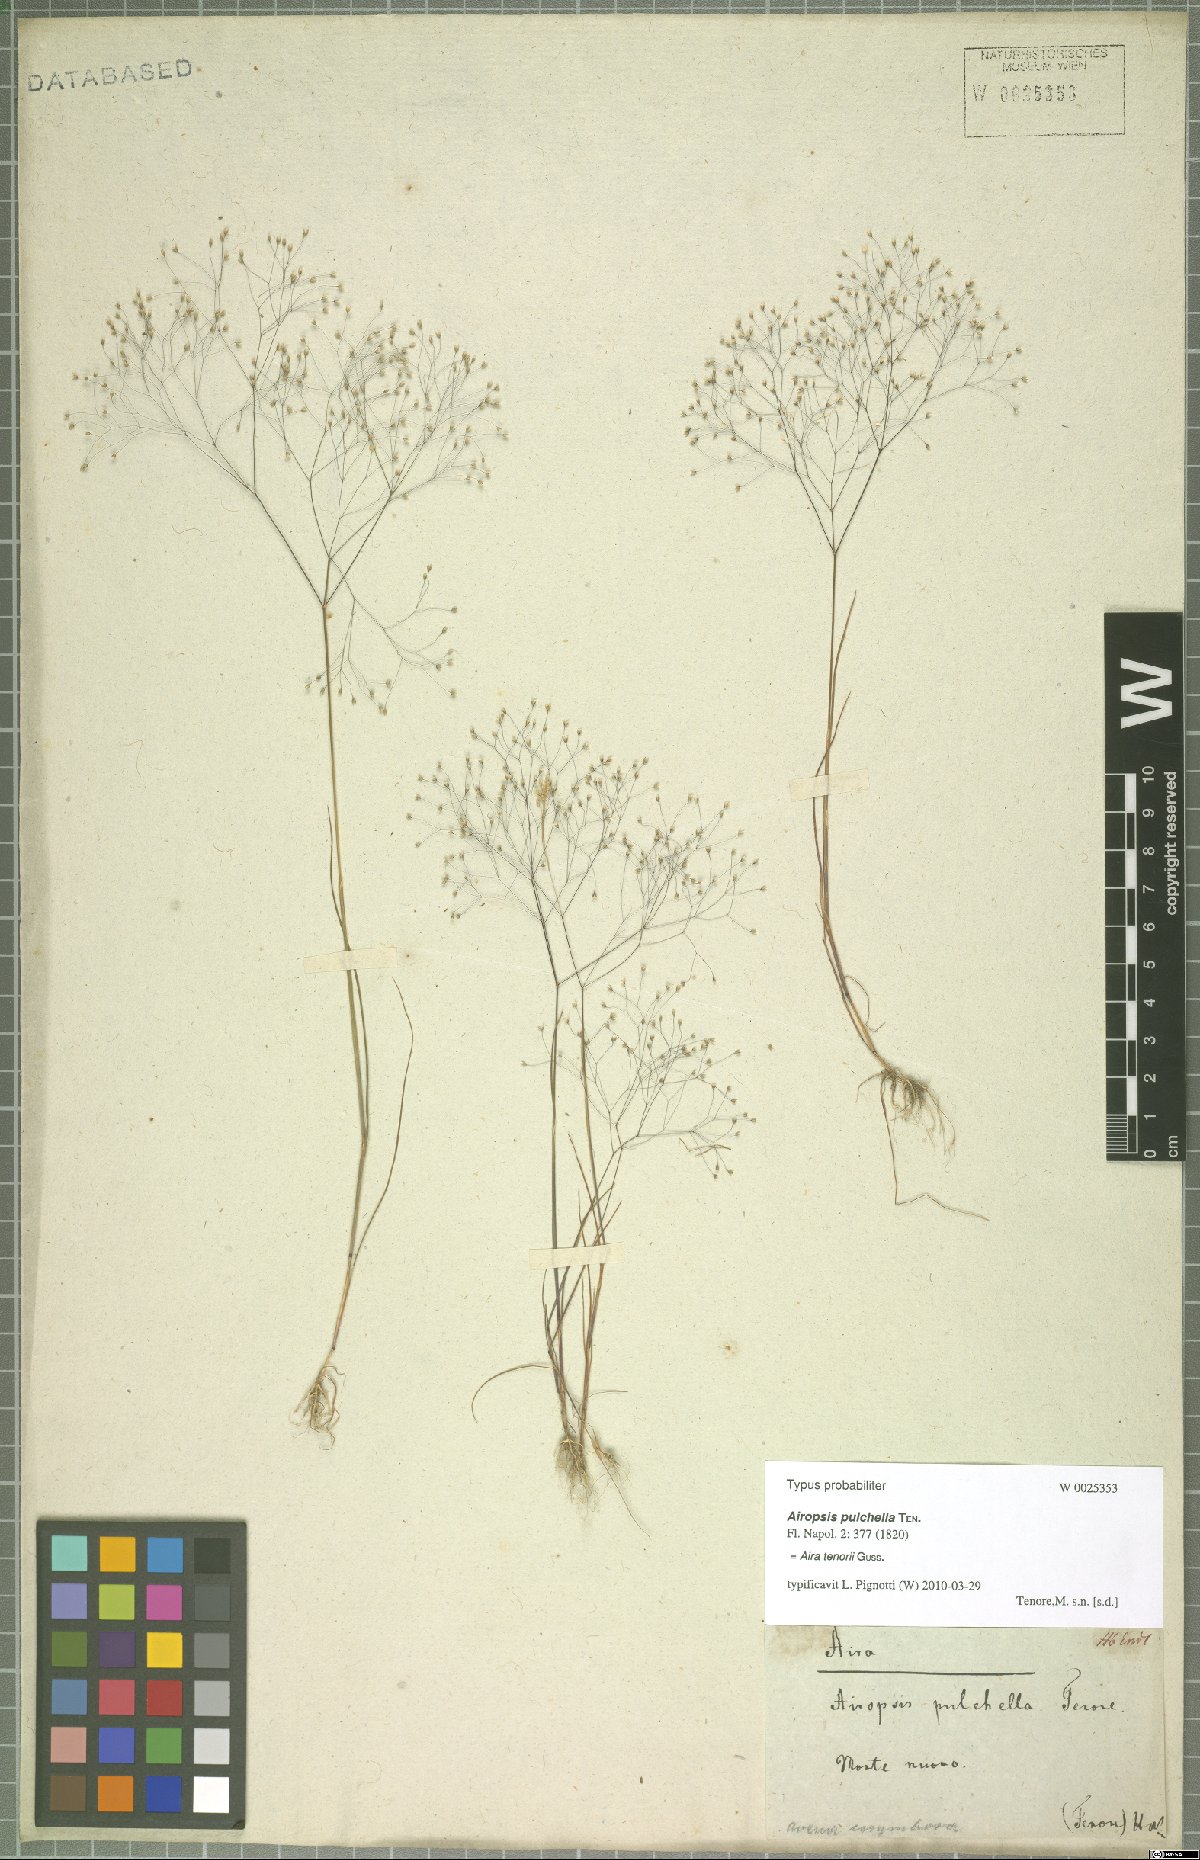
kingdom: Plantae
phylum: Tracheophyta
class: Liliopsida
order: Poales
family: Poaceae
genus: Aira
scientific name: Aira tenorei
